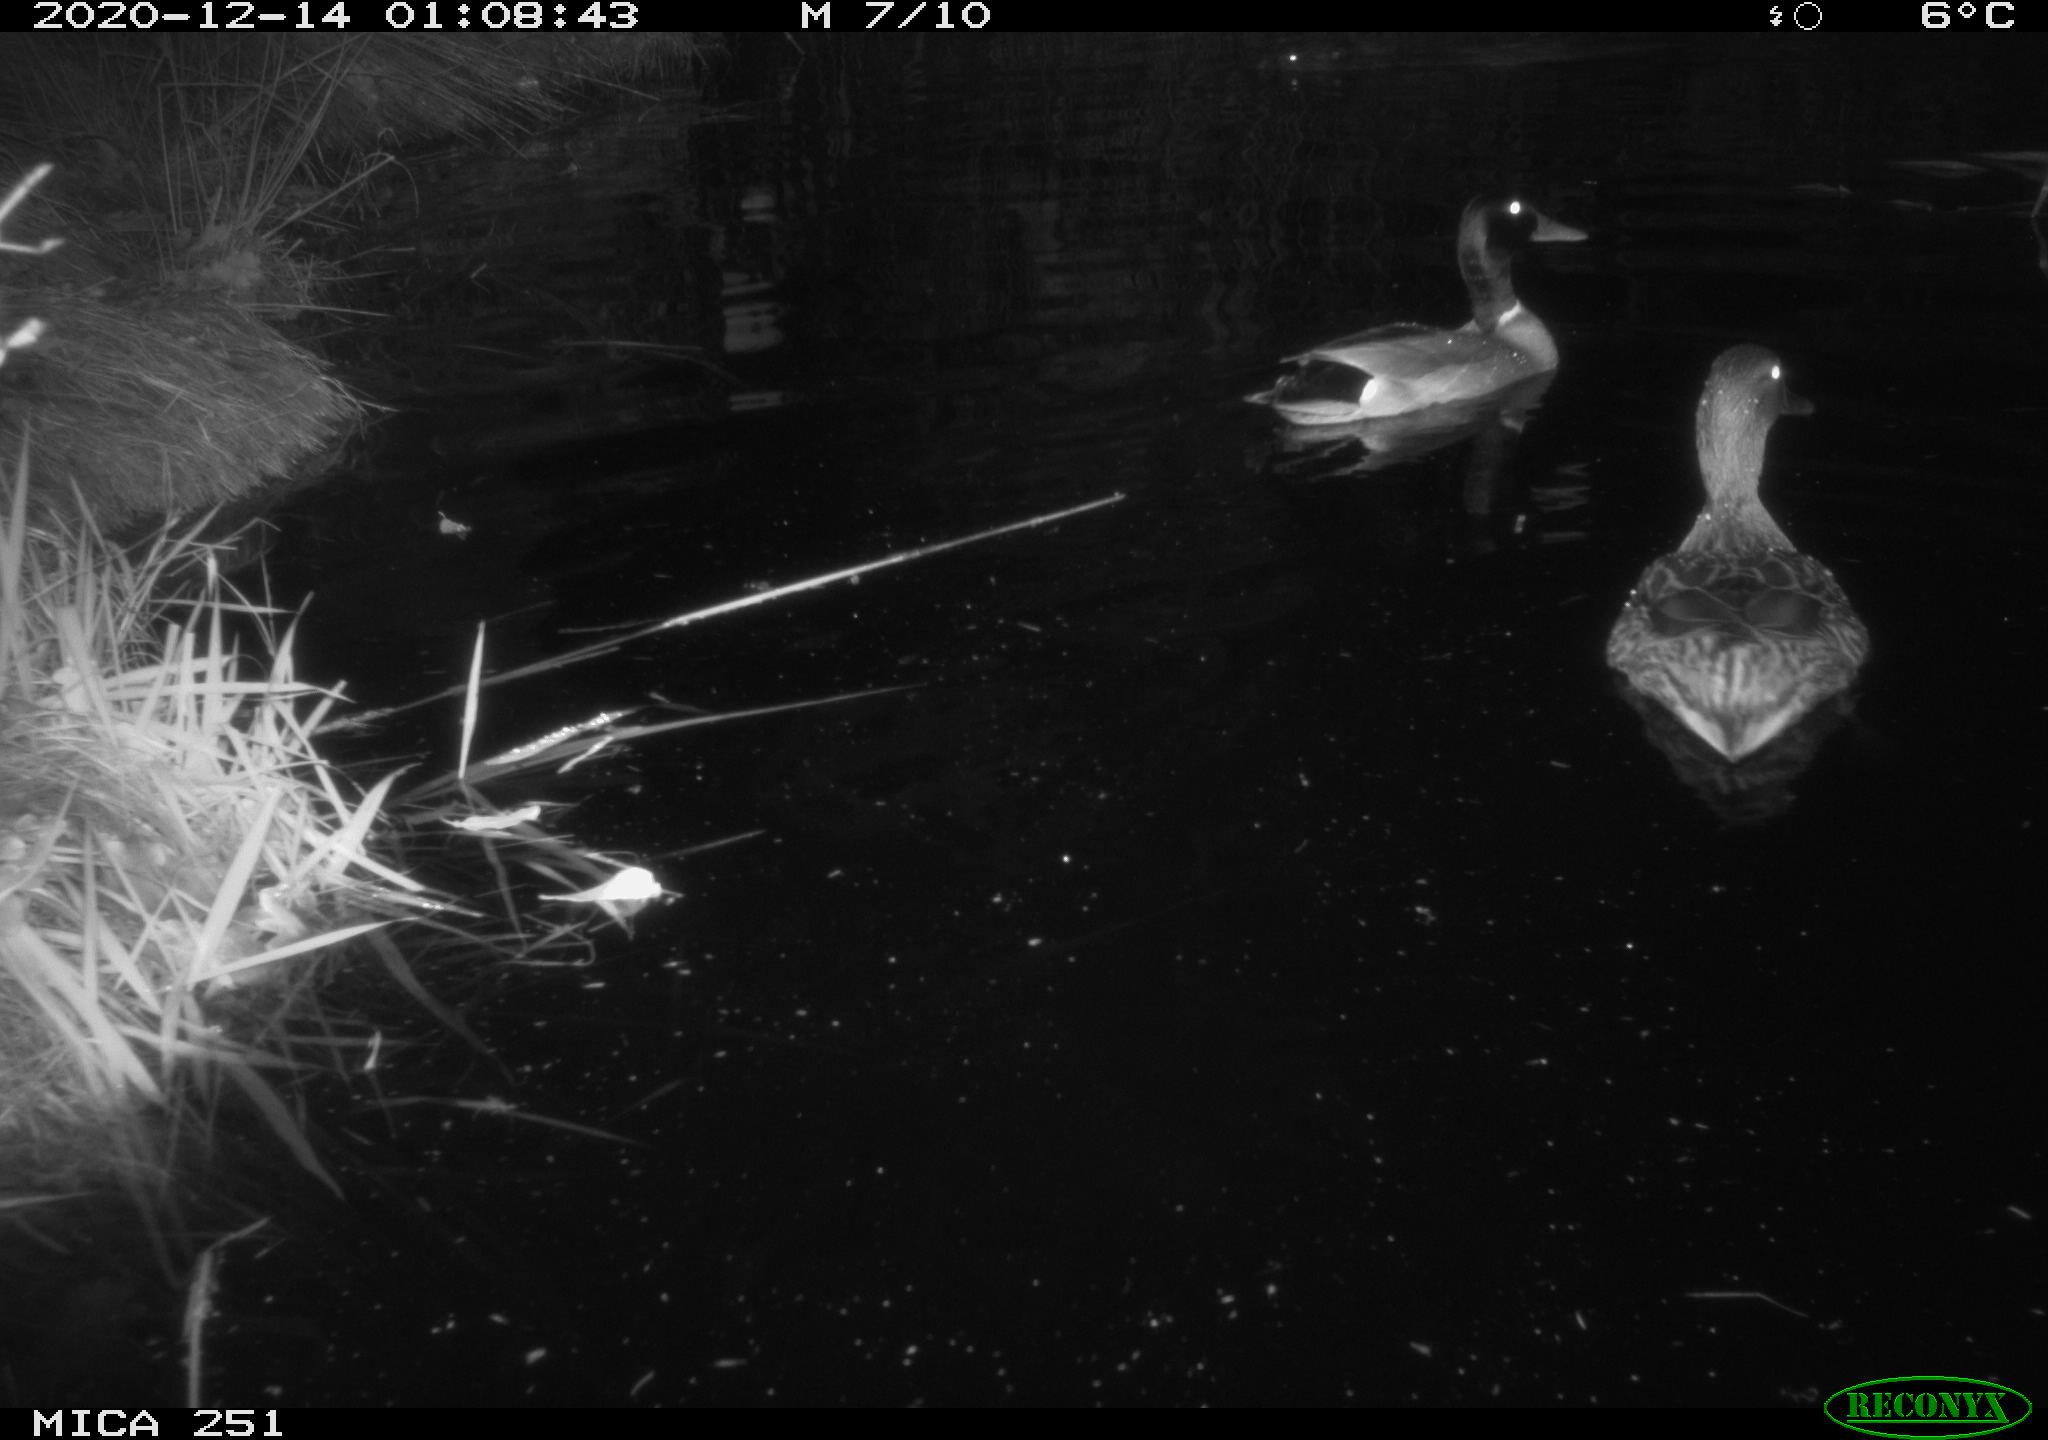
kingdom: Animalia
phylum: Chordata
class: Aves
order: Anseriformes
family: Anatidae
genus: Anas
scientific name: Anas platyrhynchos
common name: Mallard
